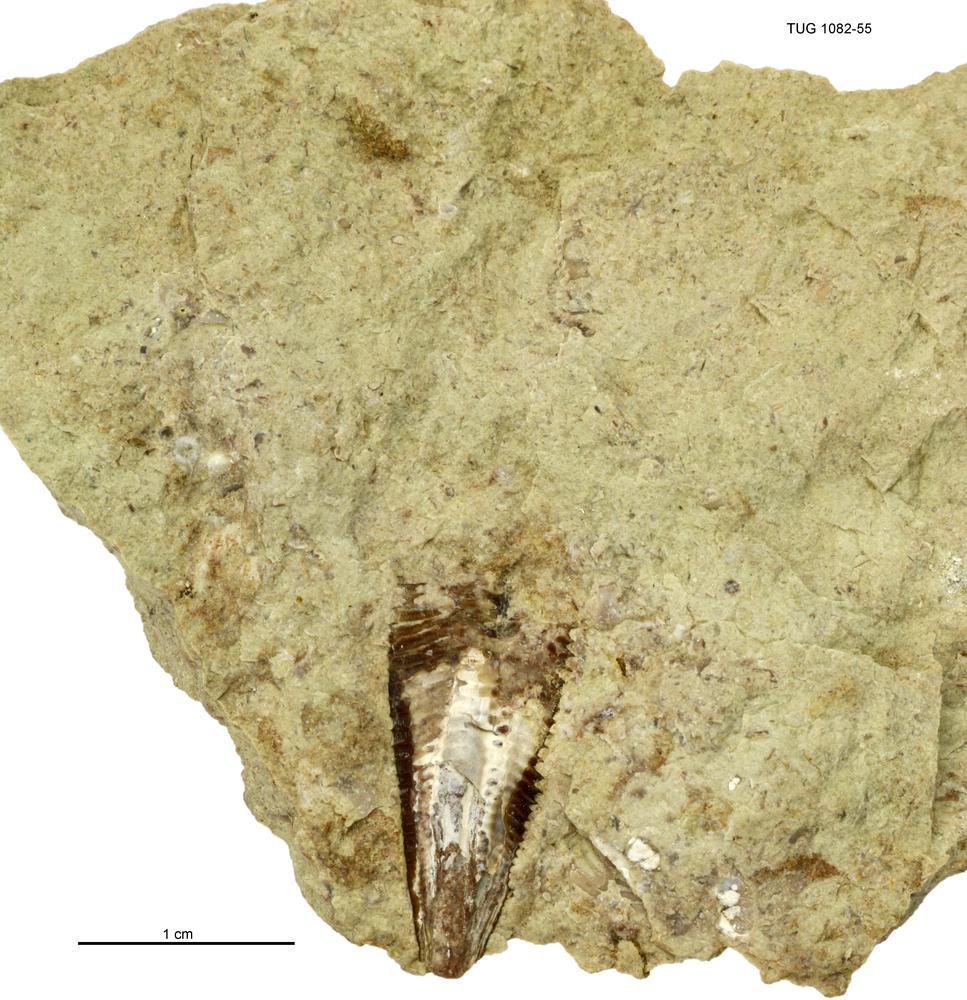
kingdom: Animalia
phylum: Cnidaria
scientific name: Cnidaria
